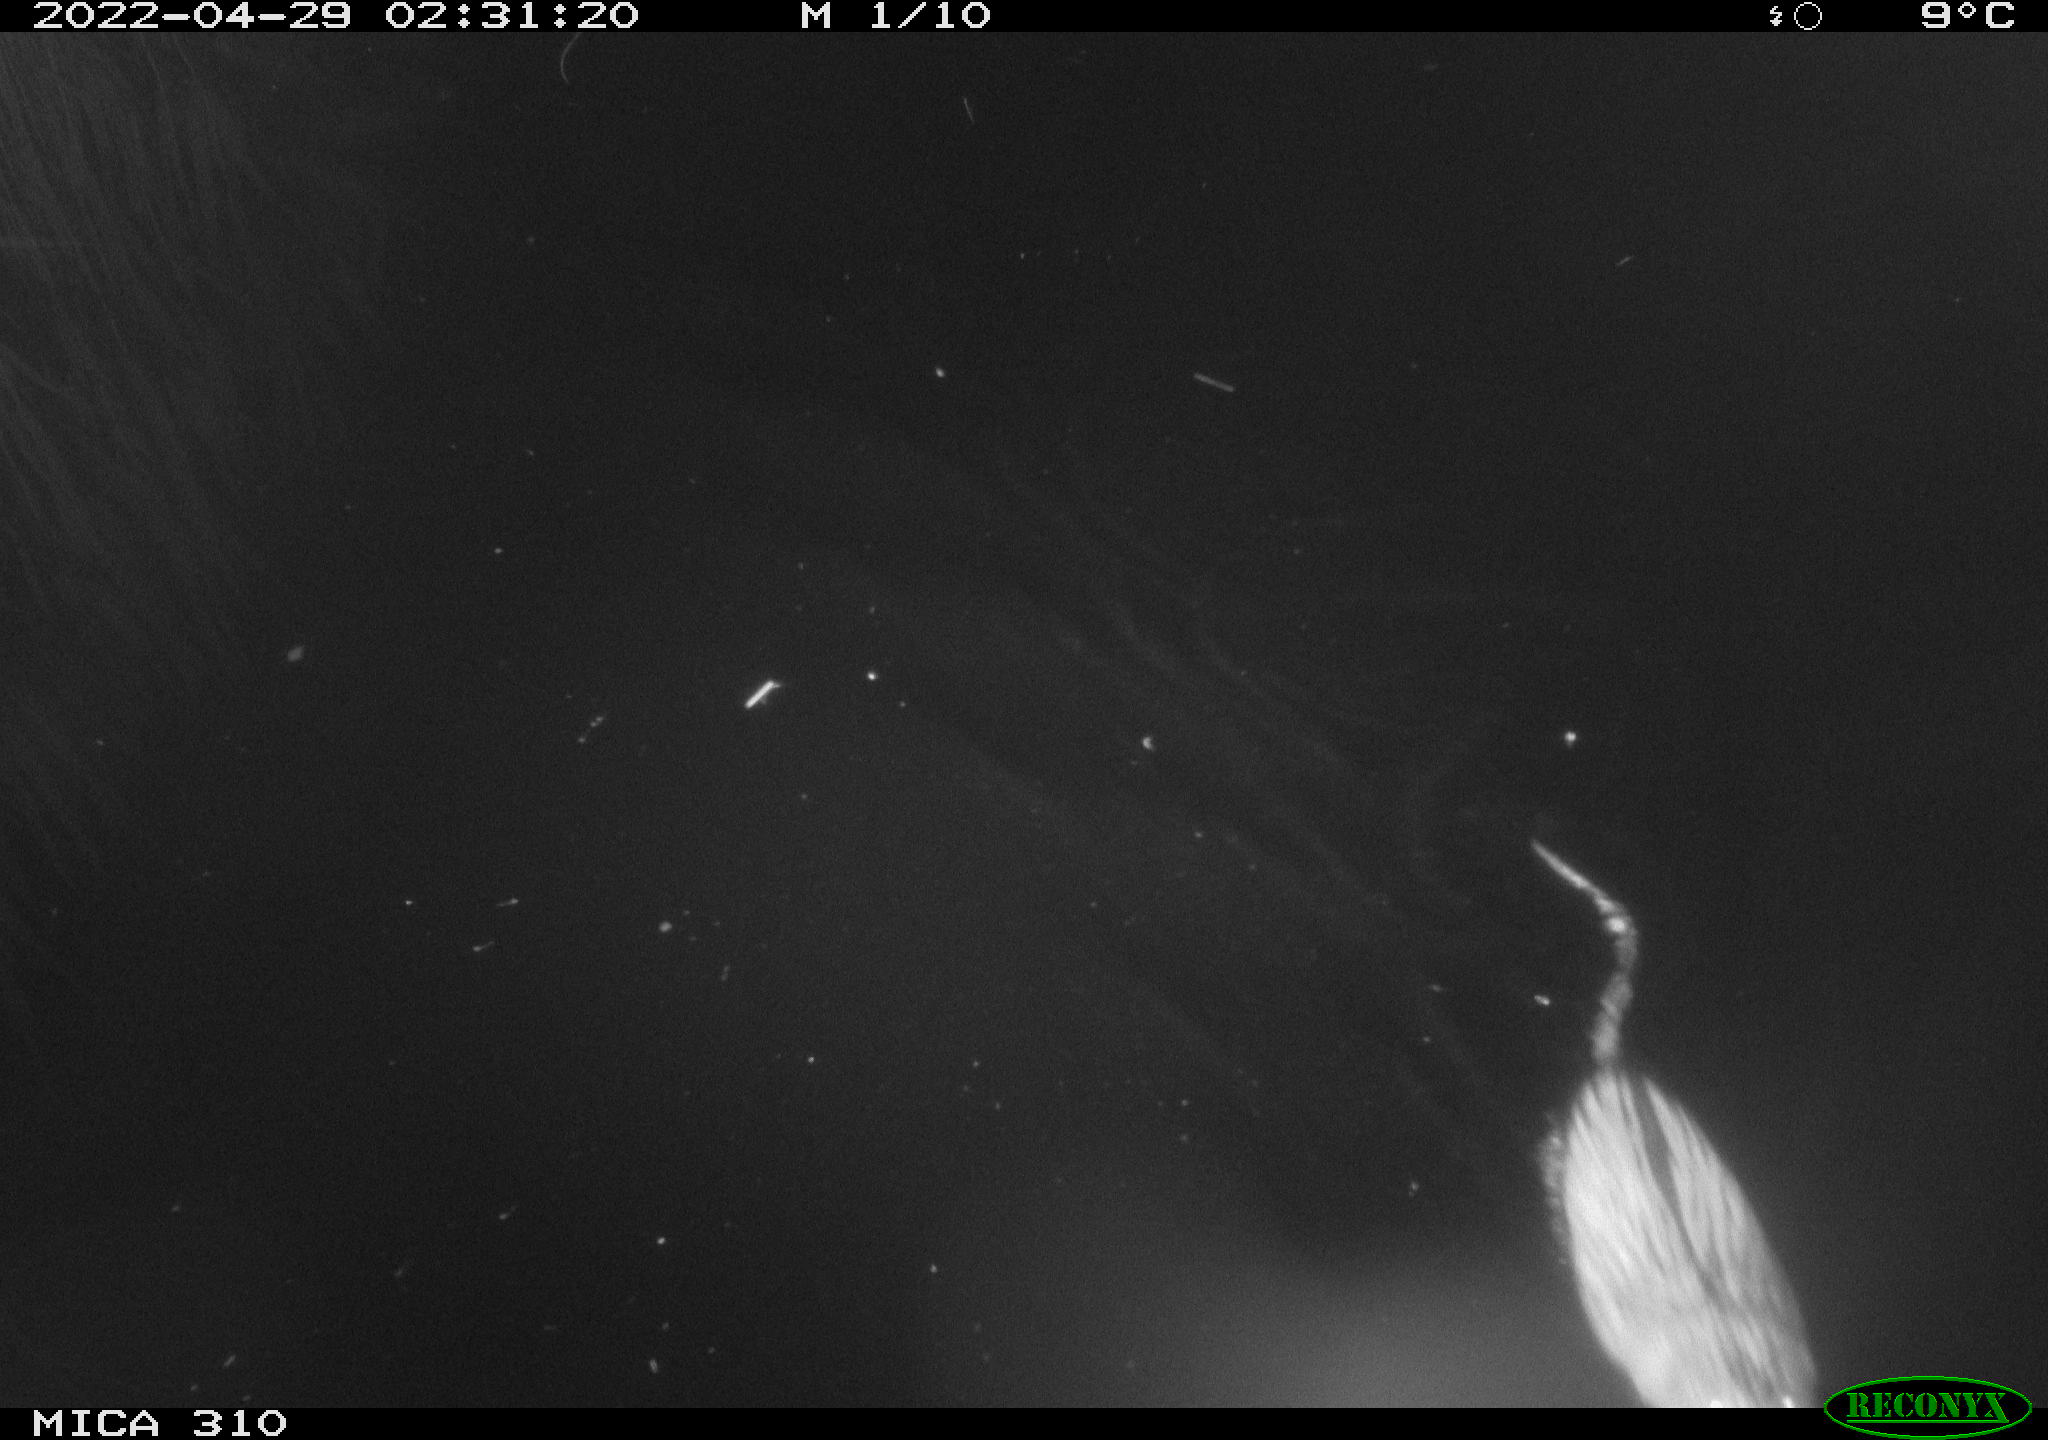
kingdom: Animalia
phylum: Chordata
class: Mammalia
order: Rodentia
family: Cricetidae
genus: Ondatra
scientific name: Ondatra zibethicus
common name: Muskrat
